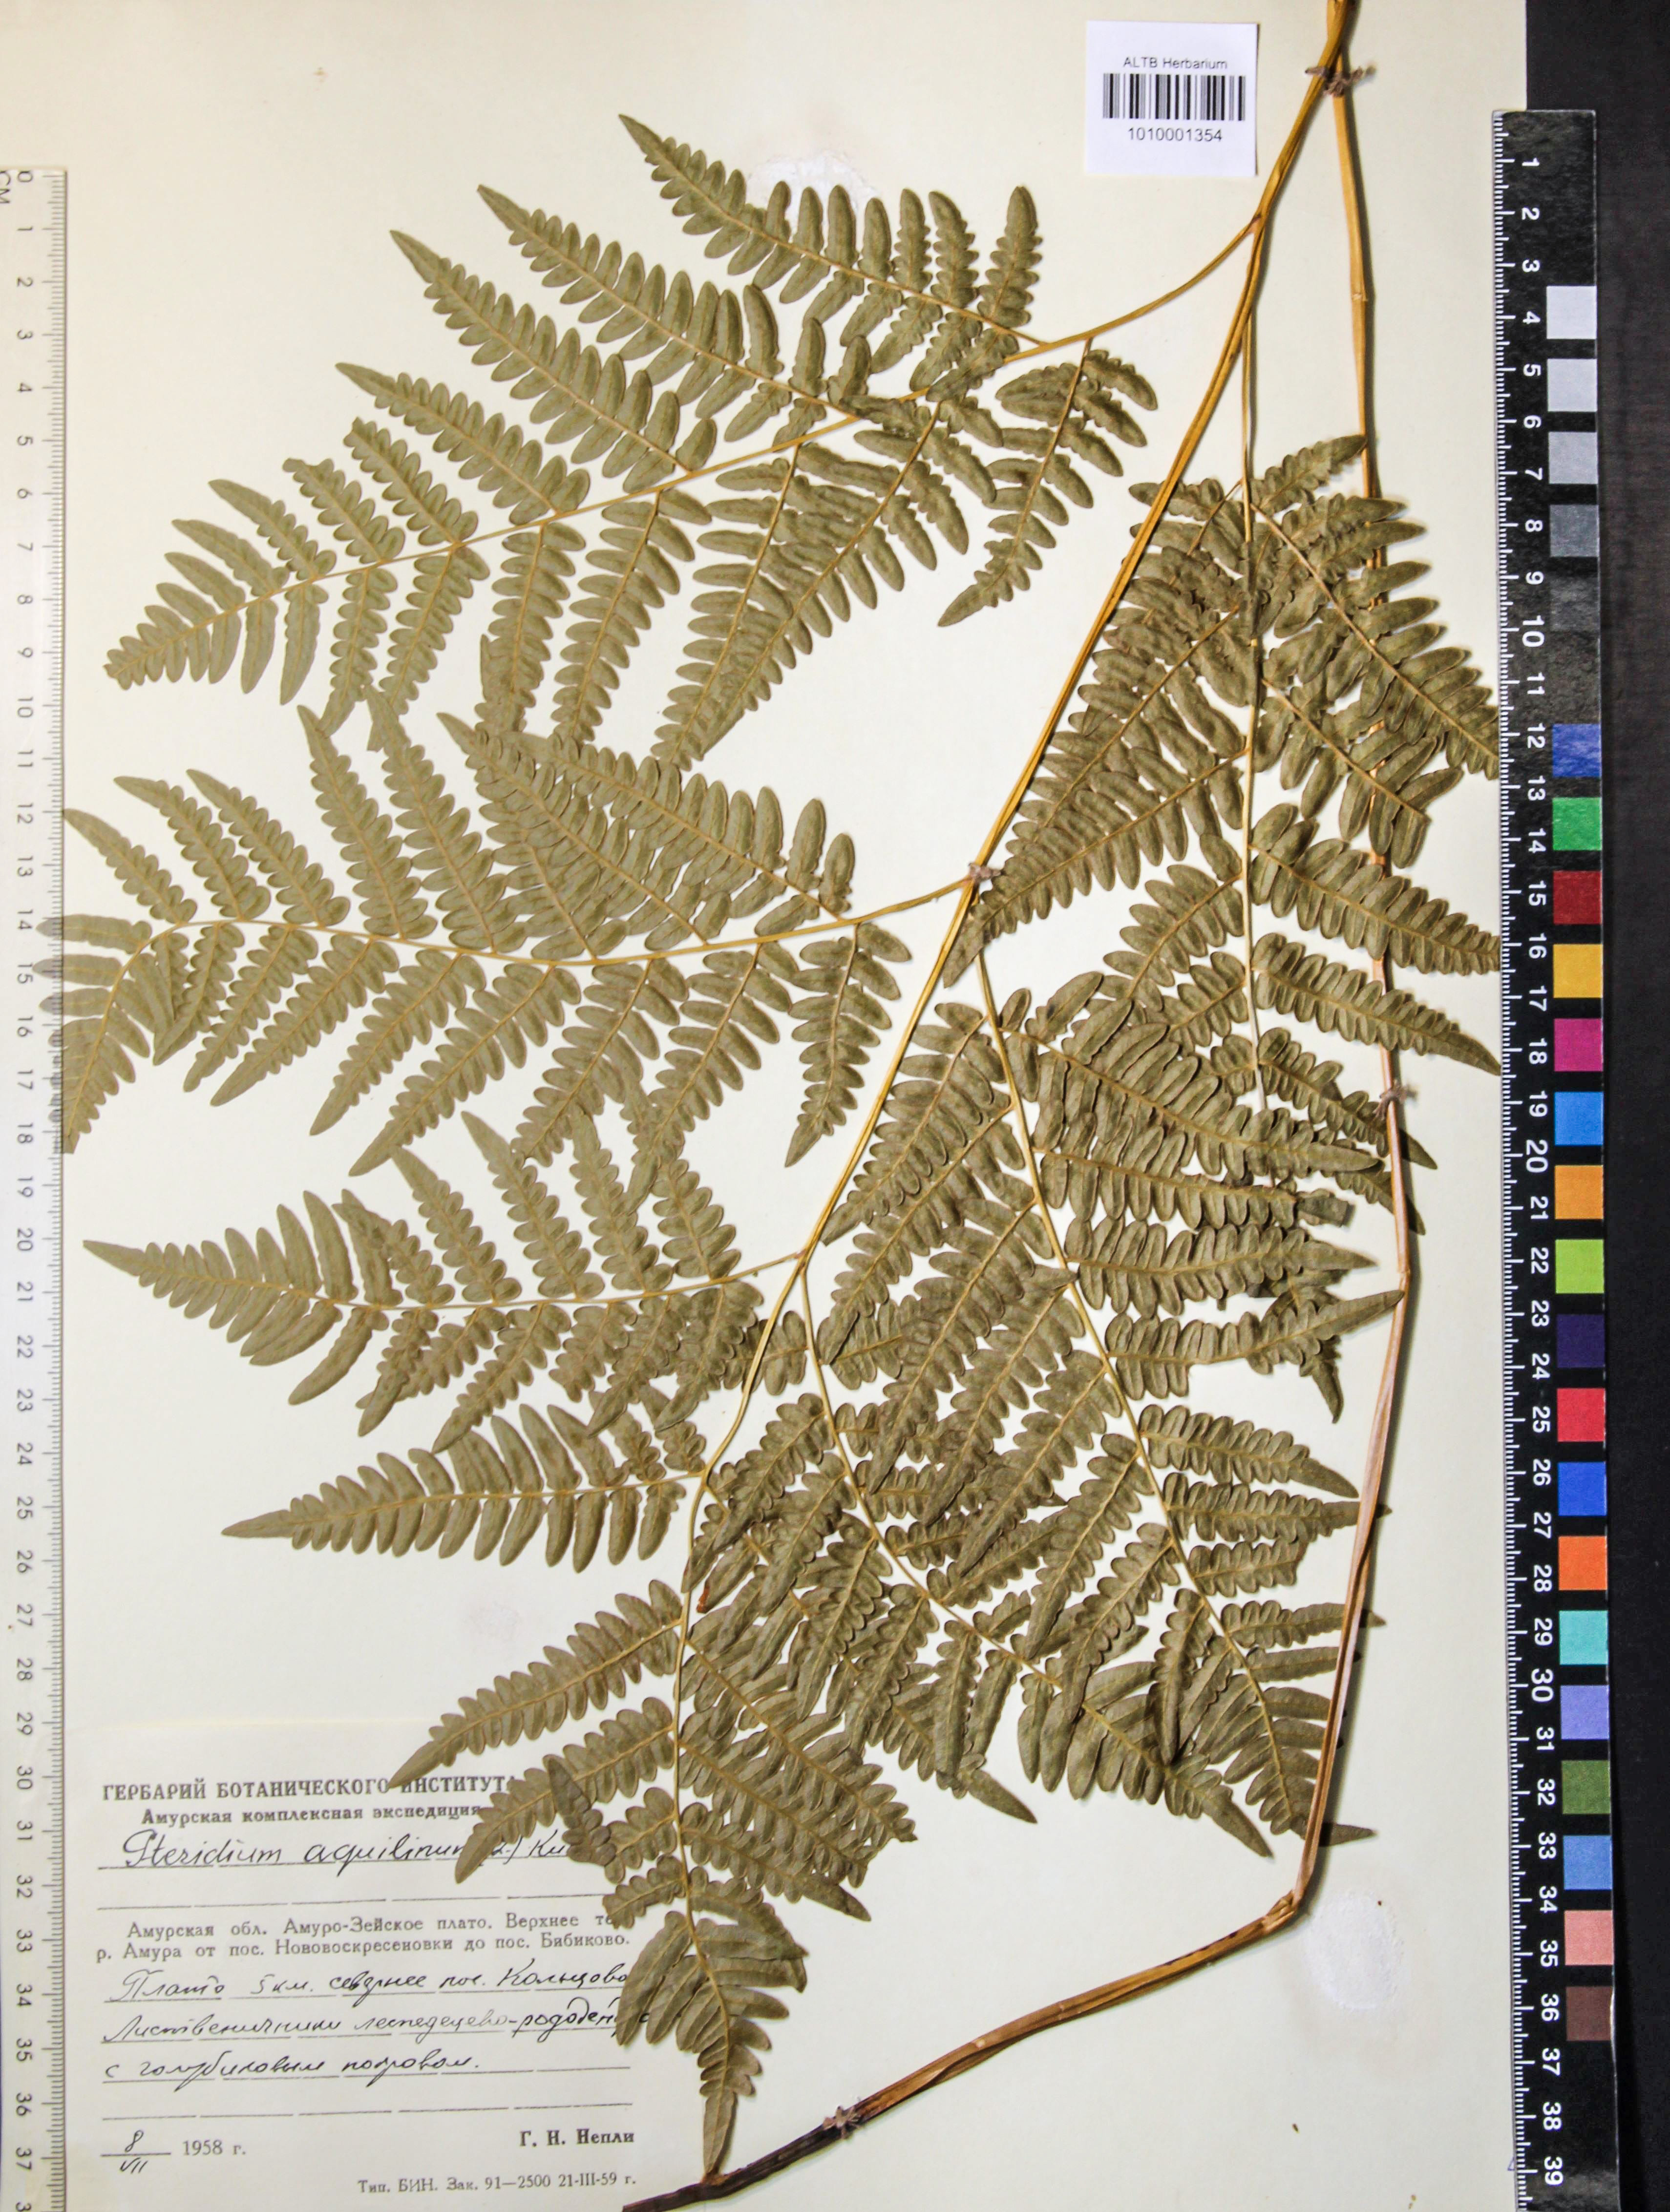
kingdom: Plantae
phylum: Tracheophyta
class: Polypodiopsida
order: Polypodiales
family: Dennstaedtiaceae
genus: Pteridium
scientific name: Pteridium aquilinum
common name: Bracken
